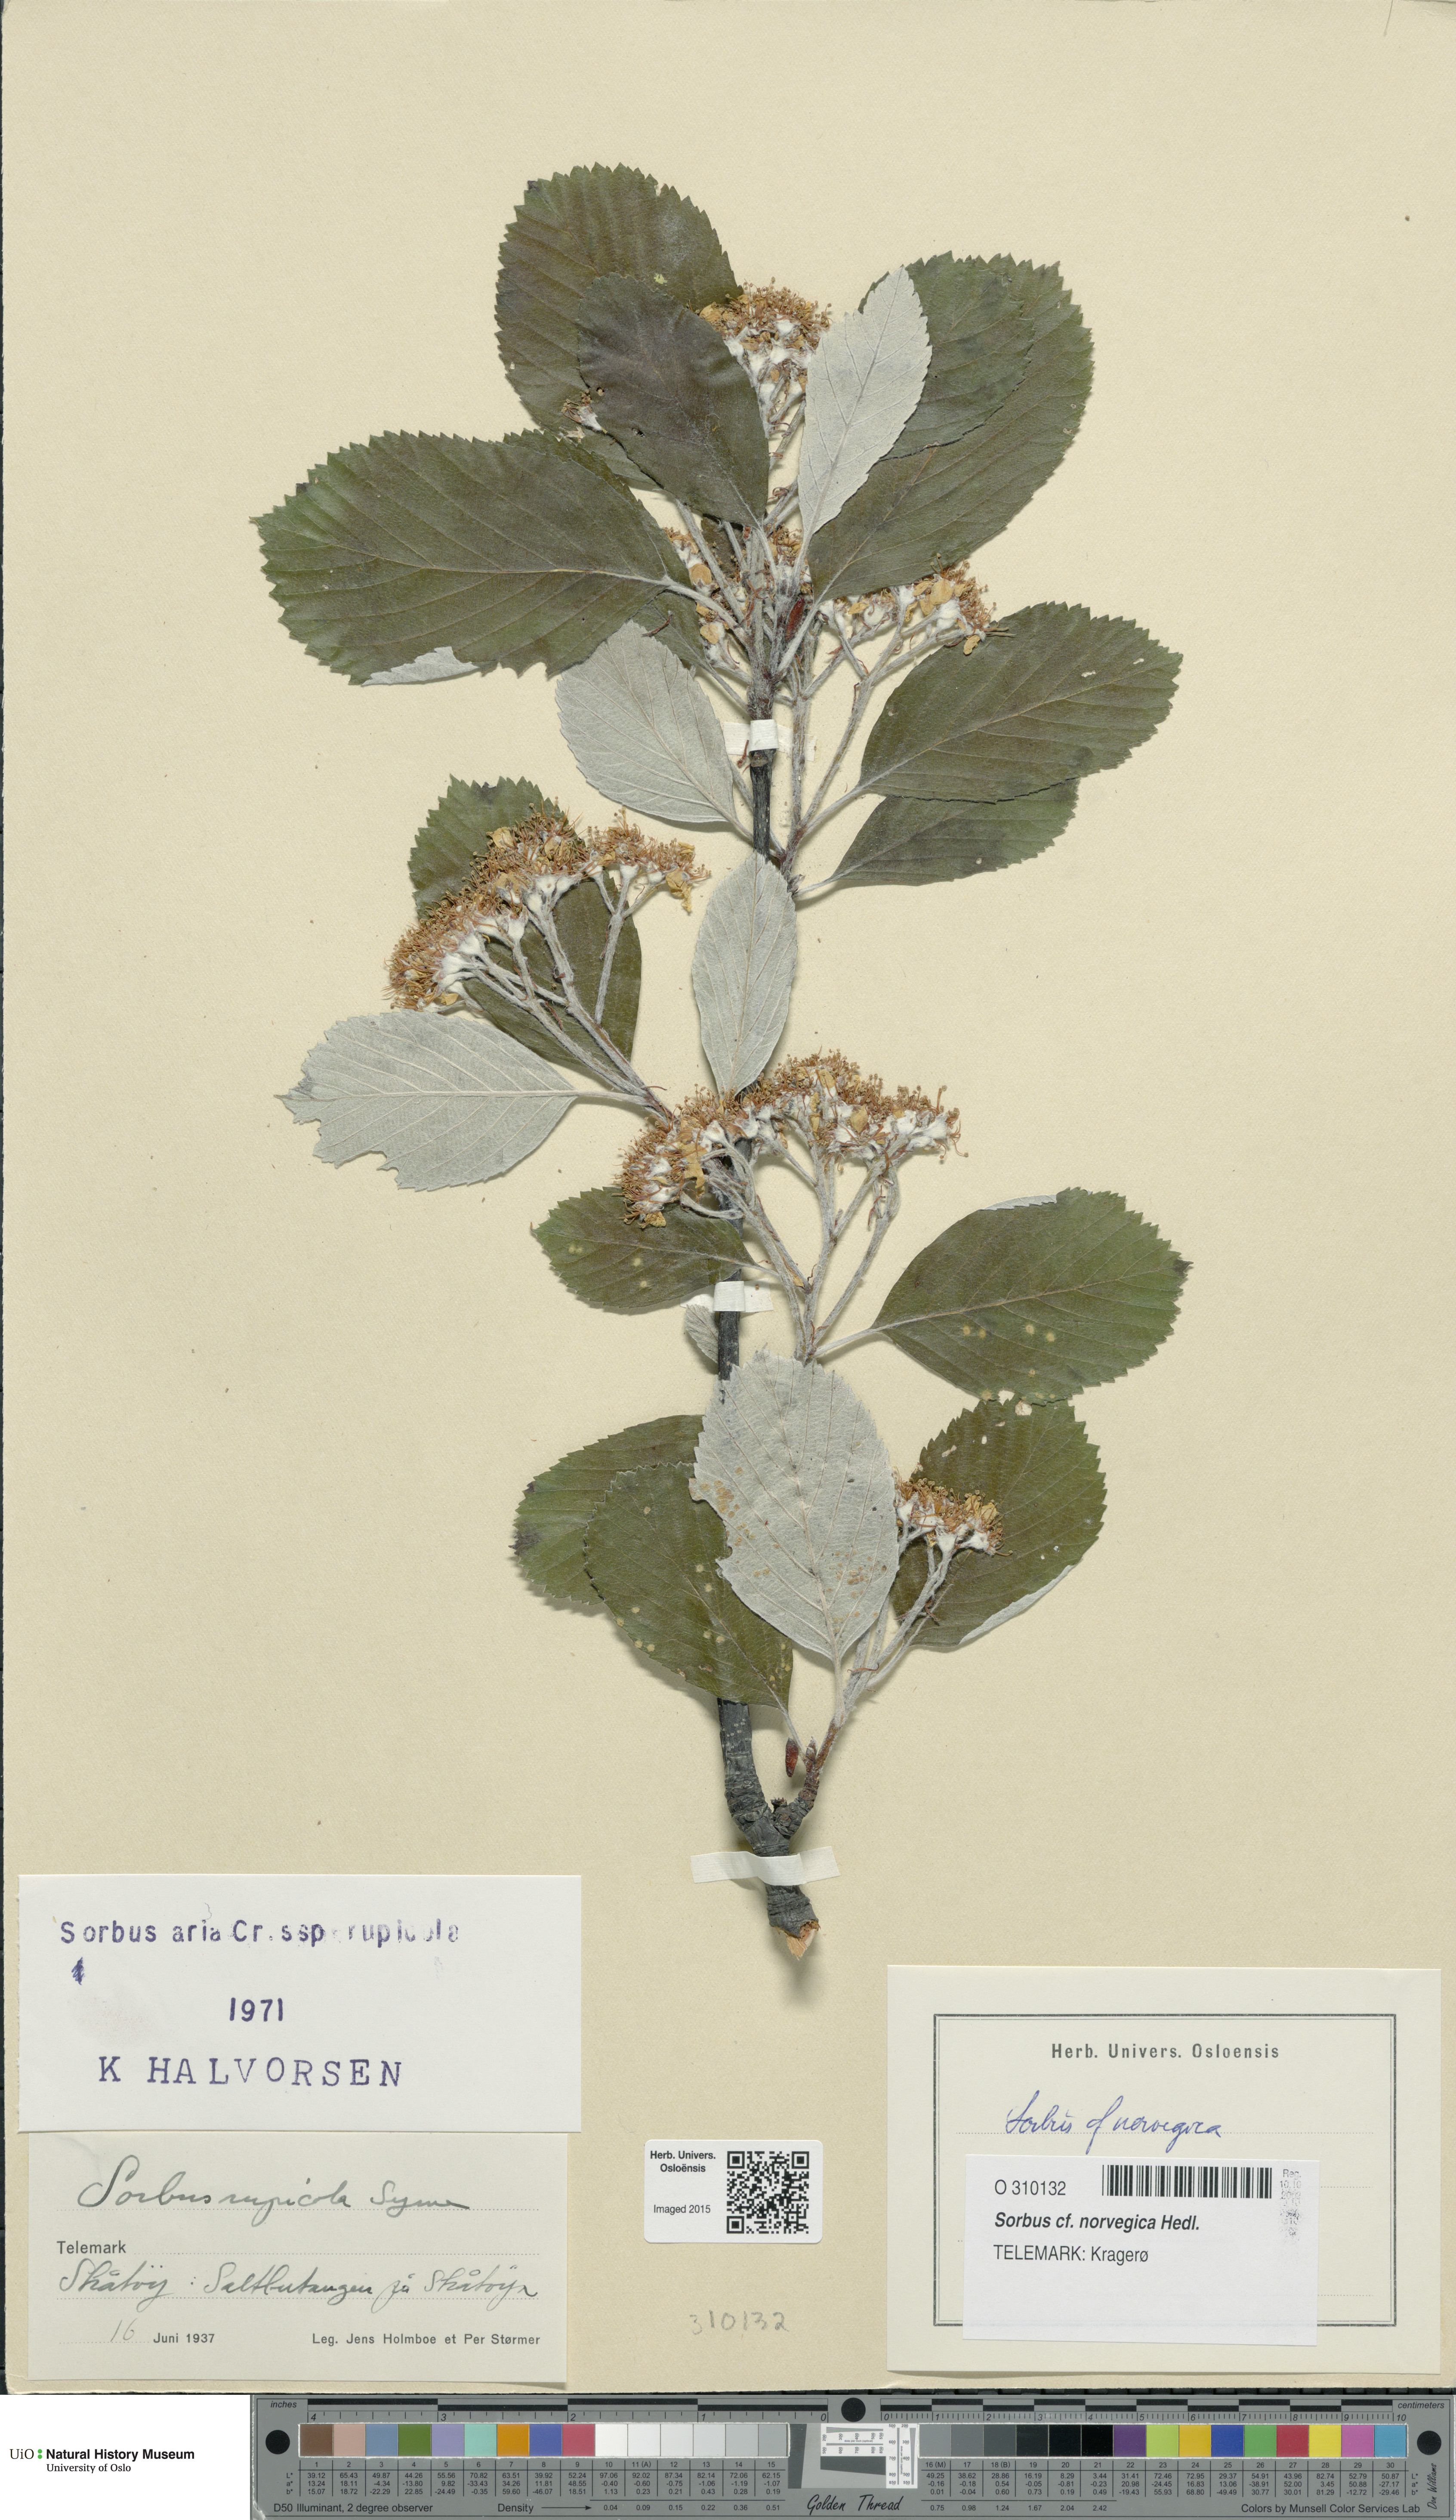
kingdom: Plantae
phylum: Tracheophyta
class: Magnoliopsida
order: Rosales
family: Rosaceae
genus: Aria
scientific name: Aria obtusifolia
